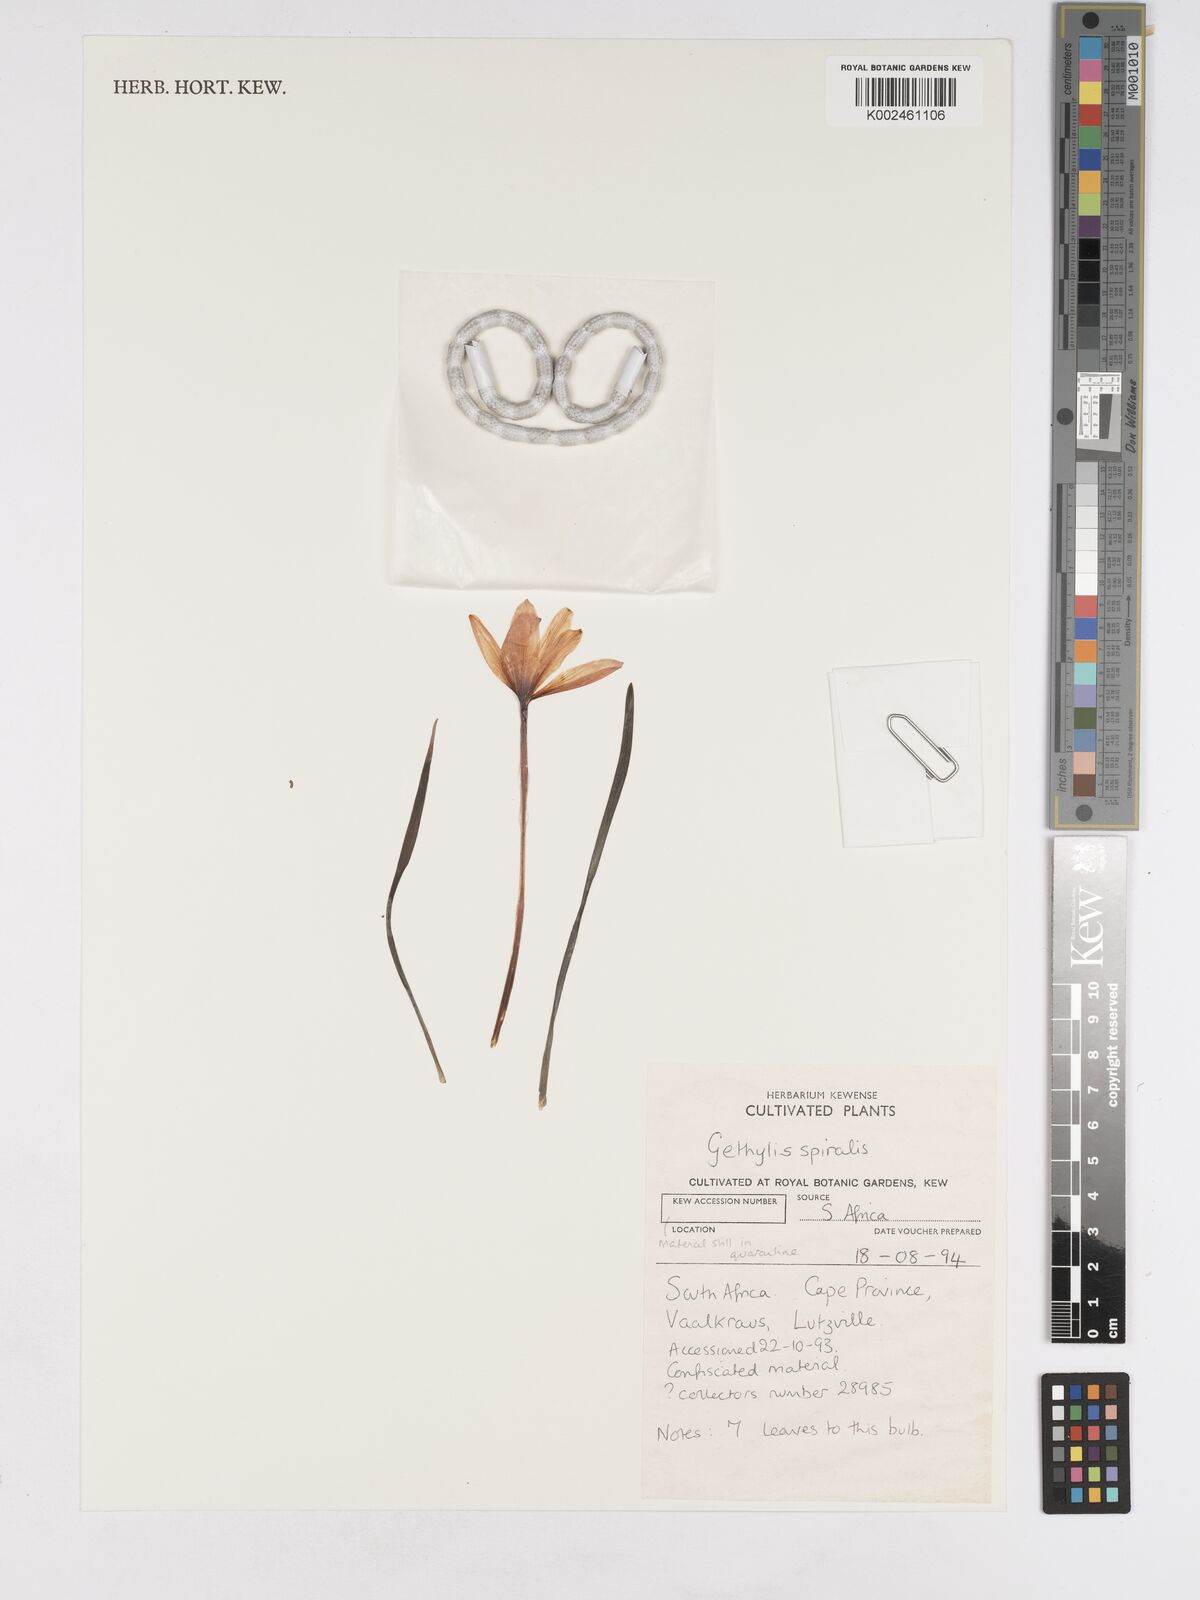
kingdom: Plantae
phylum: Tracheophyta
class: Liliopsida
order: Asparagales
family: Amaryllidaceae
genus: Gethyllis
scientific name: Gethyllis spiralis
